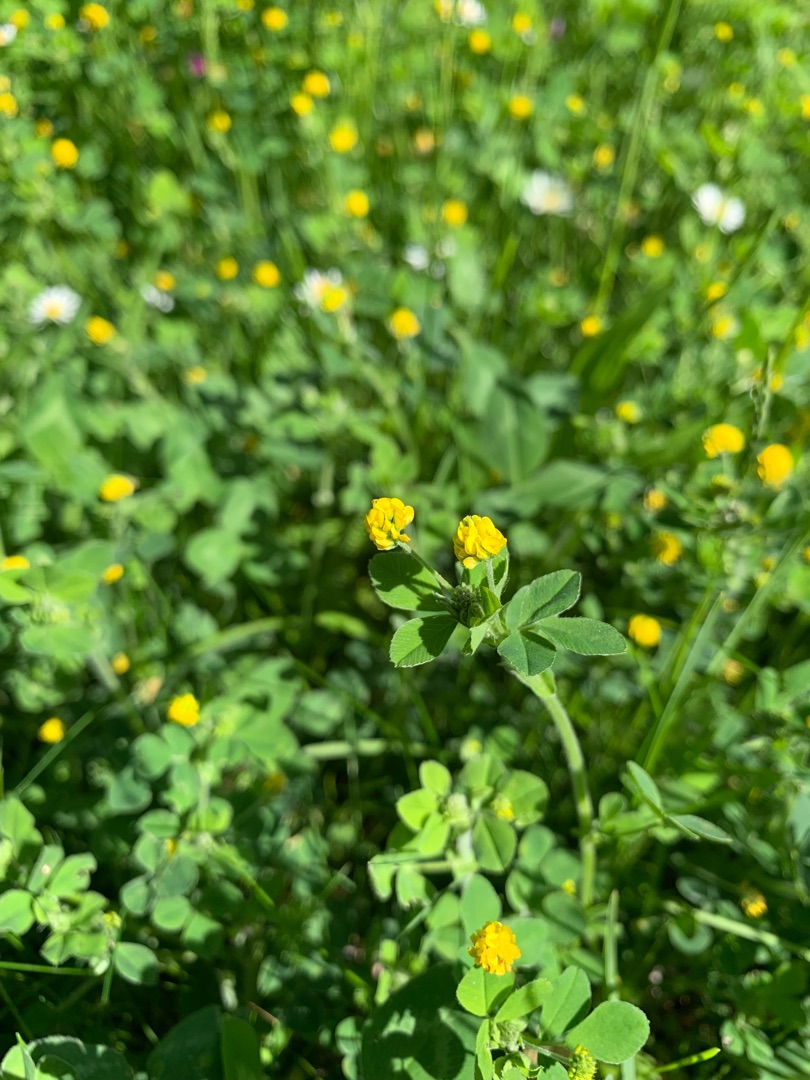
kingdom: Plantae
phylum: Tracheophyta
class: Magnoliopsida
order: Fabales
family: Fabaceae
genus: Medicago
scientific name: Medicago lupulina
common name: Humle-sneglebælg
